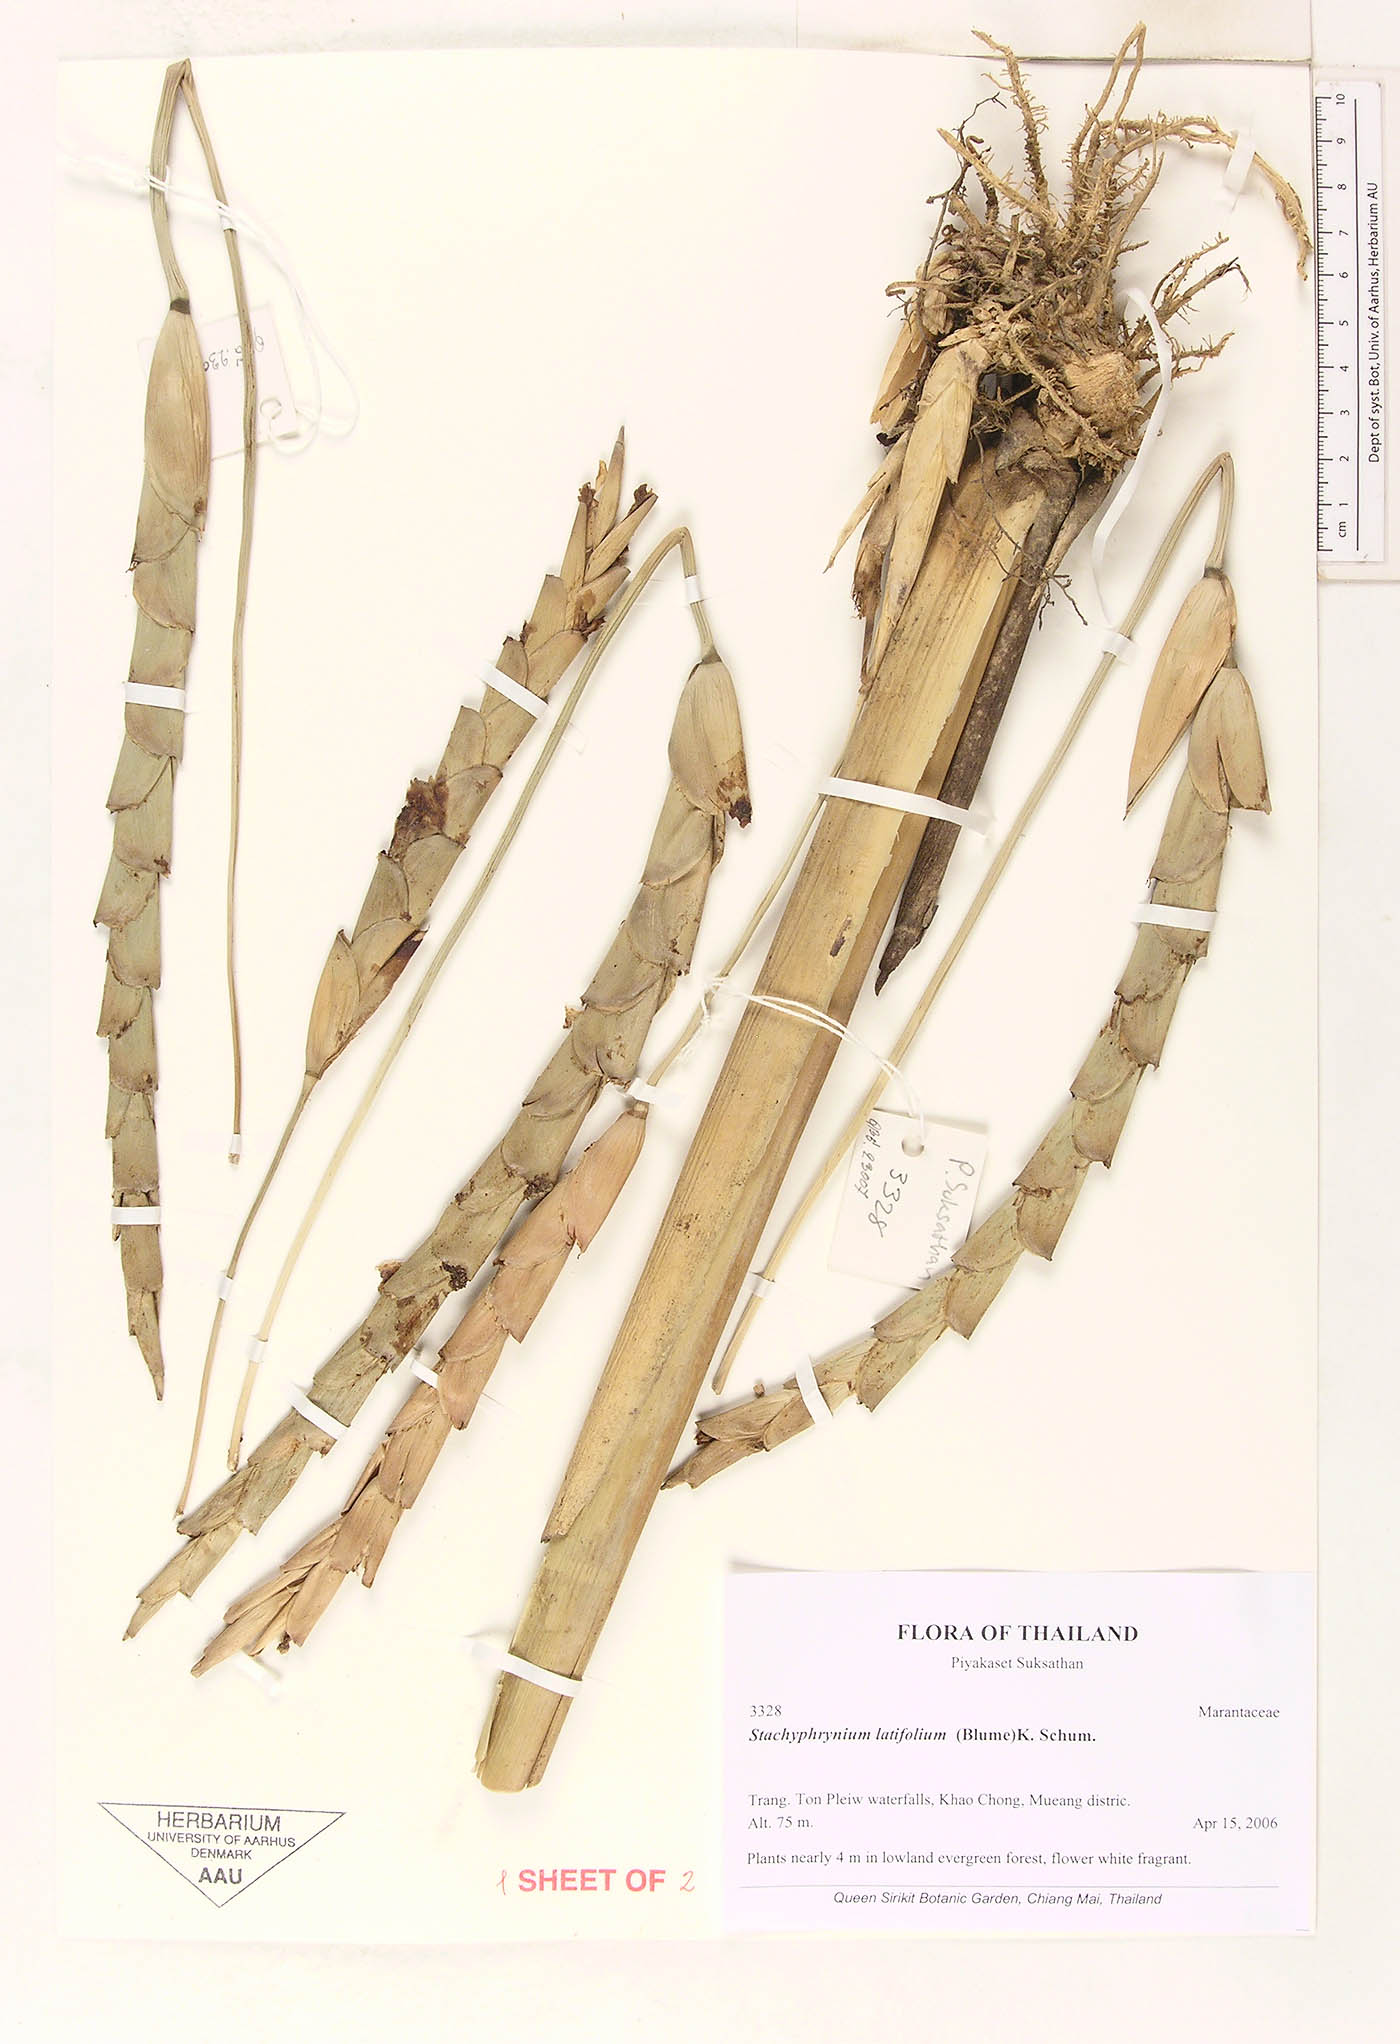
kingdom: Plantae
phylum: Tracheophyta
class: Liliopsida
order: Zingiberales
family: Marantaceae
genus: Stachyphrynium
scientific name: Stachyphrynium latifolium
